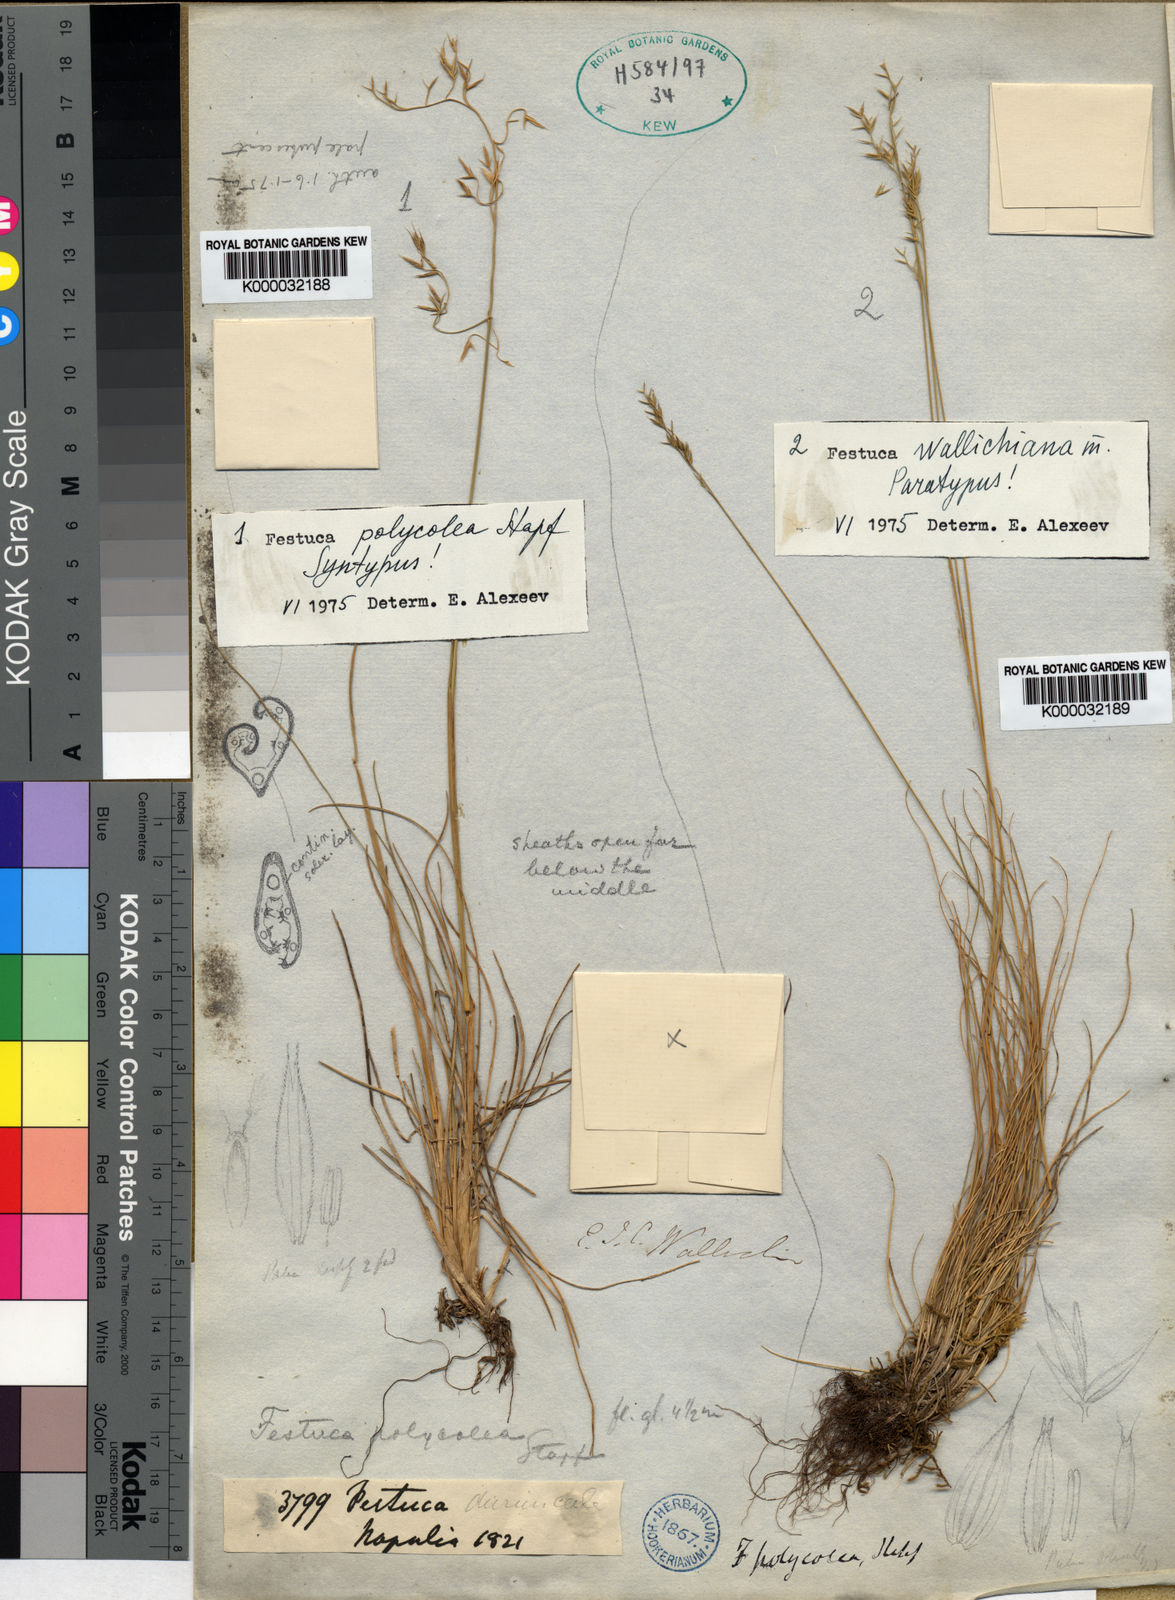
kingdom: Plantae
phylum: Tracheophyta
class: Liliopsida
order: Poales
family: Poaceae
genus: Festuca
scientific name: Festuca polycolea
